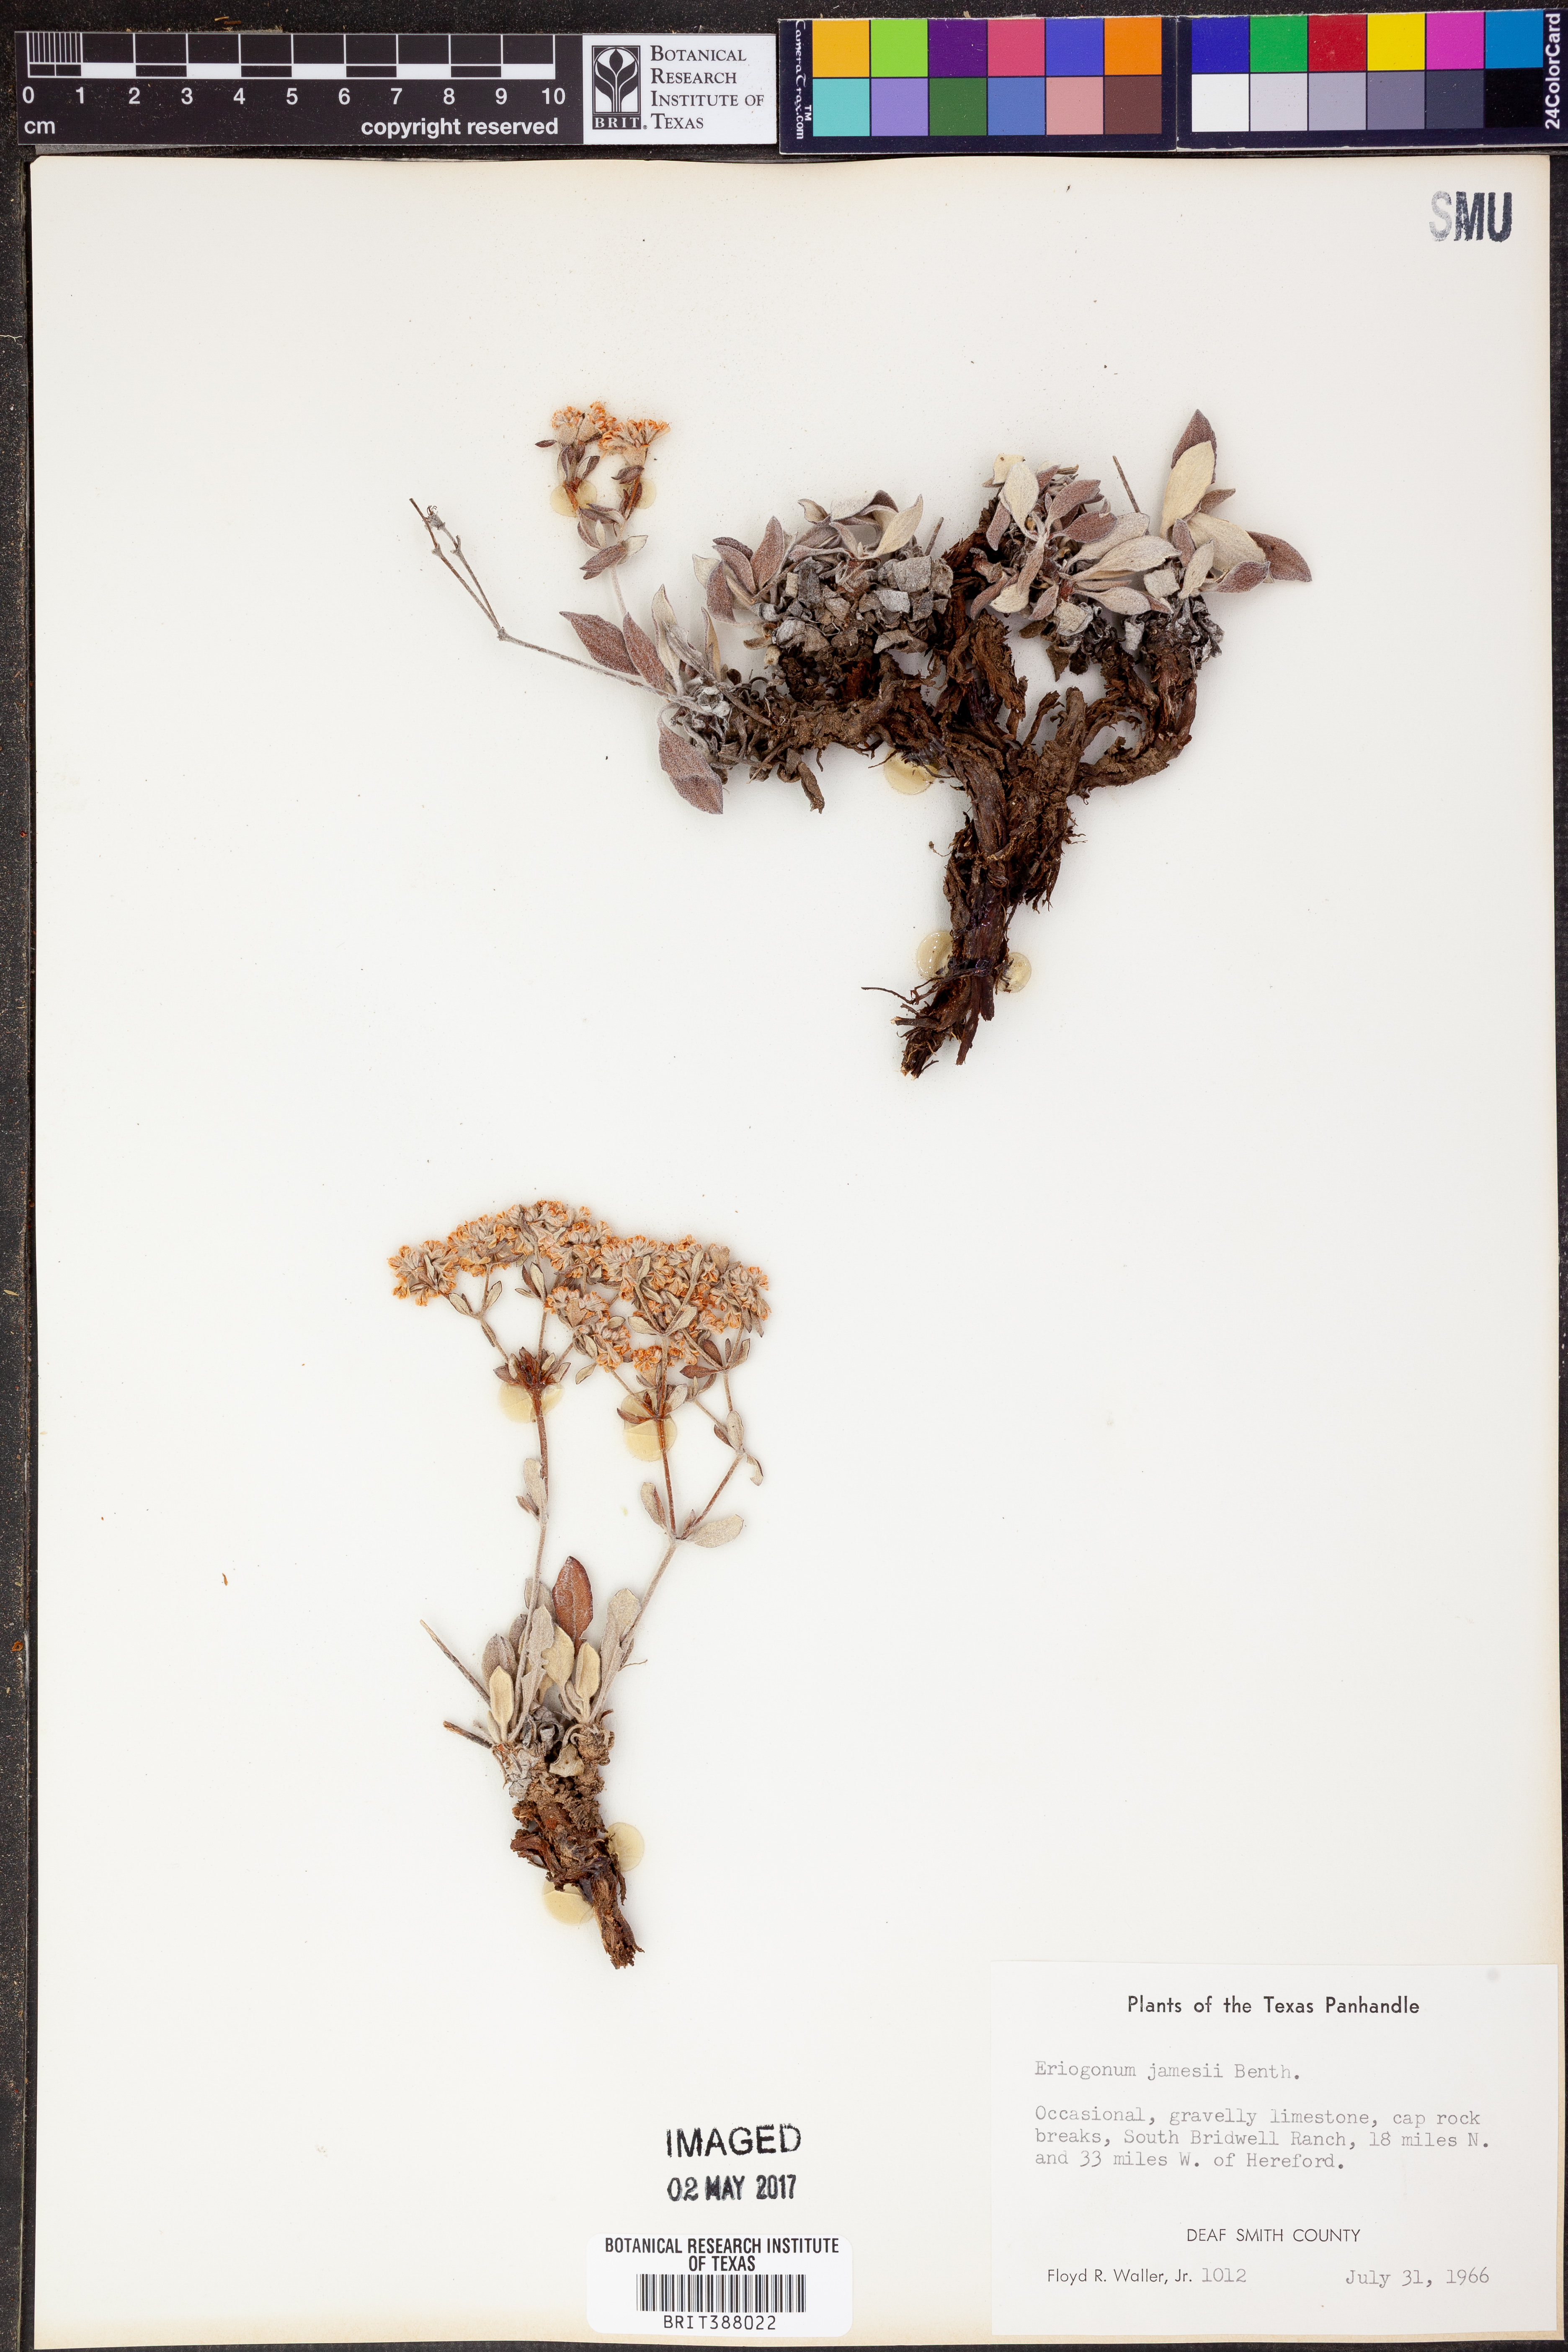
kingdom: Plantae
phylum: Tracheophyta
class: Magnoliopsida
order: Caryophyllales
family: Polygonaceae
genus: Eriogonum
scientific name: Eriogonum jamesii
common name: Antelope-sage
